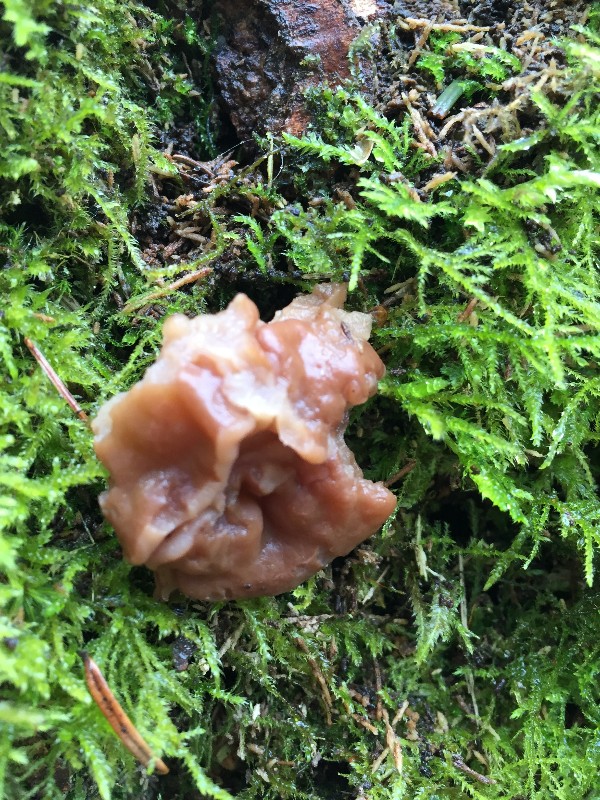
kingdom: Fungi
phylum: Ascomycota
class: Pezizomycetes
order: Pezizales
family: Discinaceae
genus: Gyromitra
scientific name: Gyromitra gigas
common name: kæmpe-stenmorkel
